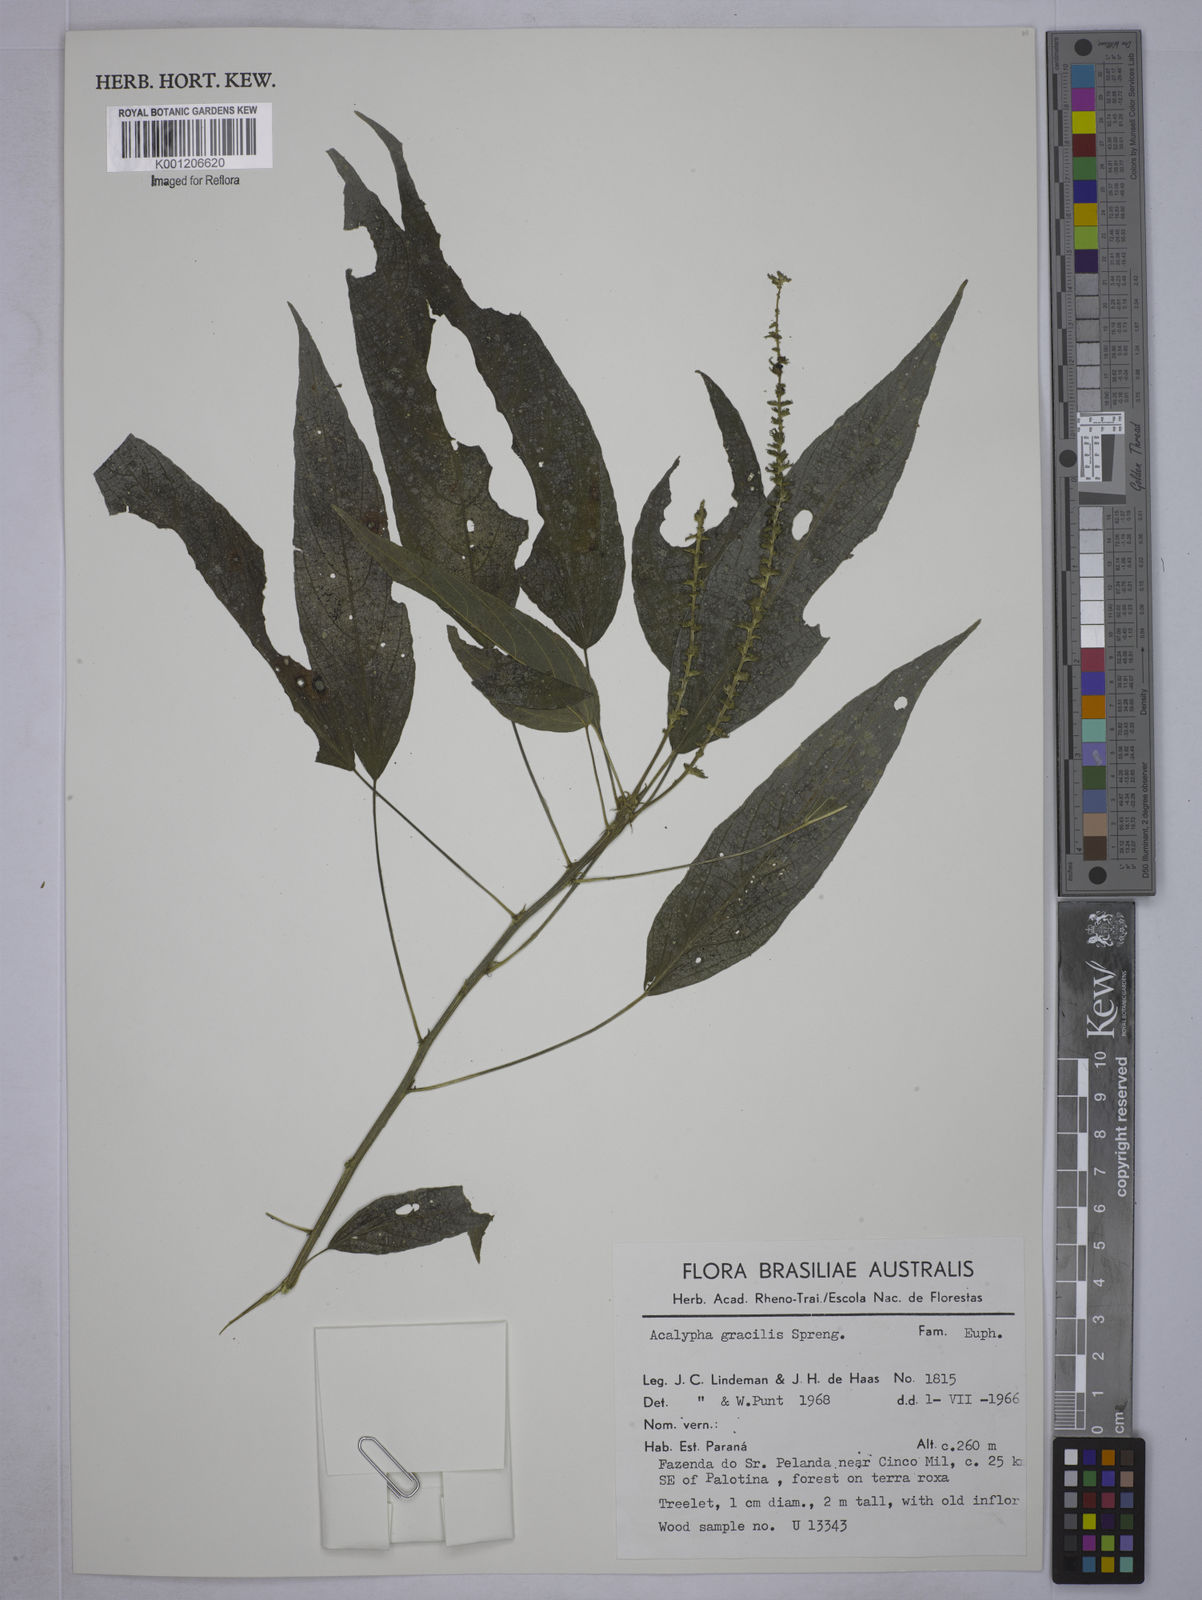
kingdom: Plantae
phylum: Tracheophyta
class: Magnoliopsida
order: Malpighiales
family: Euphorbiaceae
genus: Acalypha
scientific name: Acalypha gracilis
